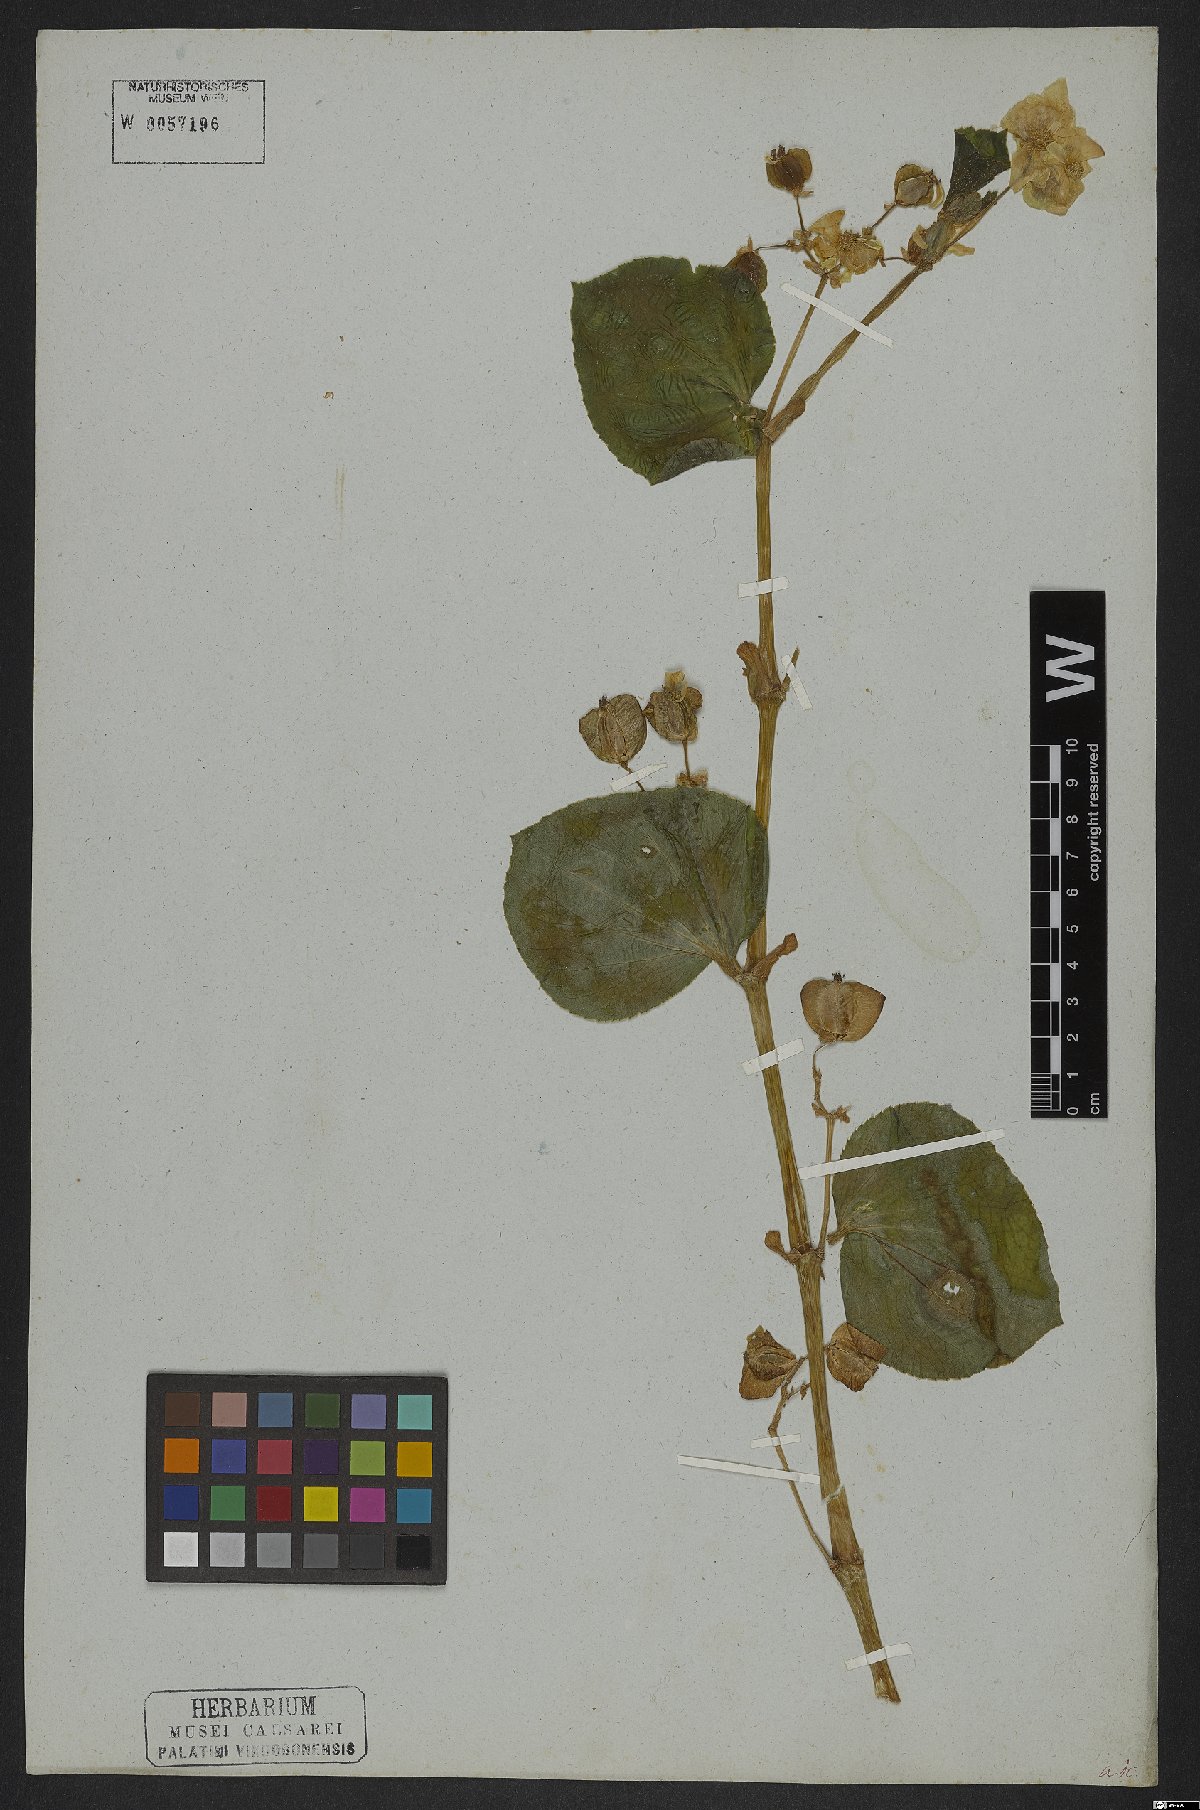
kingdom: Plantae
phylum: Tracheophyta
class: Magnoliopsida
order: Cucurbitales
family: Begoniaceae
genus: Begonia
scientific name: Begonia semperflorens
